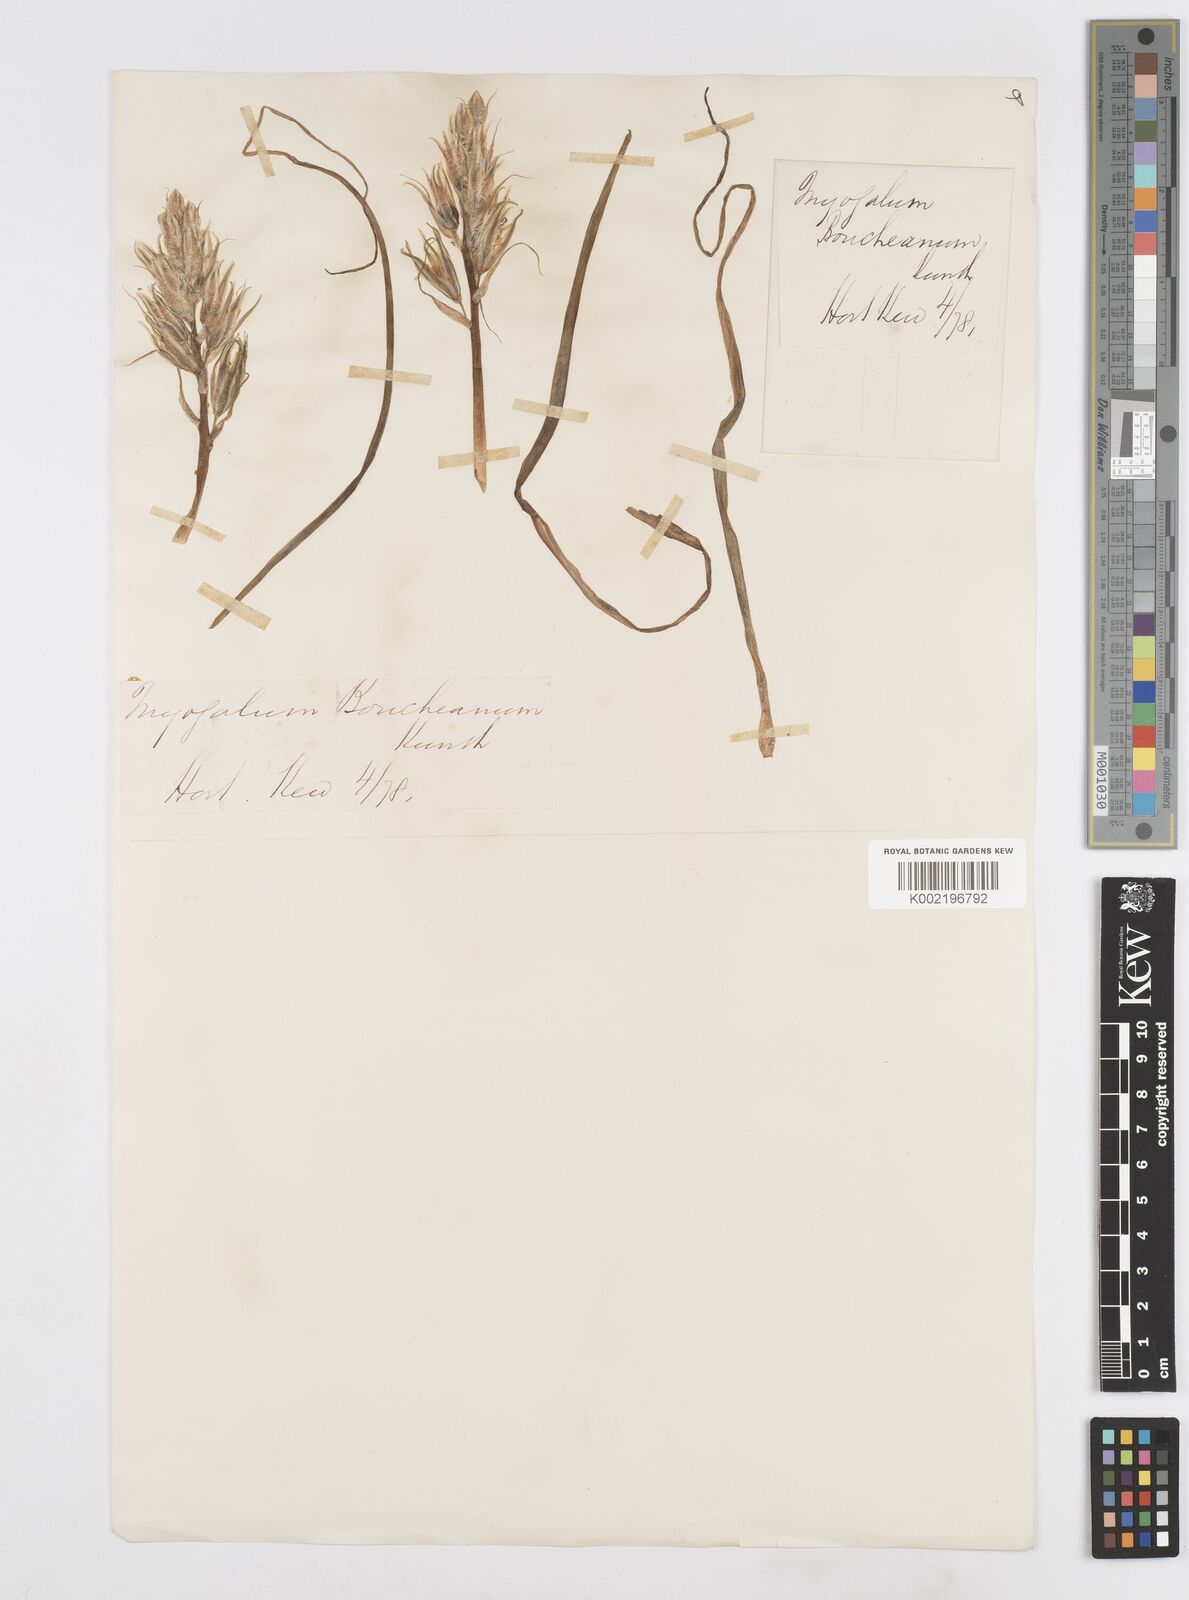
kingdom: Plantae
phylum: Tracheophyta
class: Liliopsida
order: Asparagales
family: Asparagaceae
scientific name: Asparagaceae
